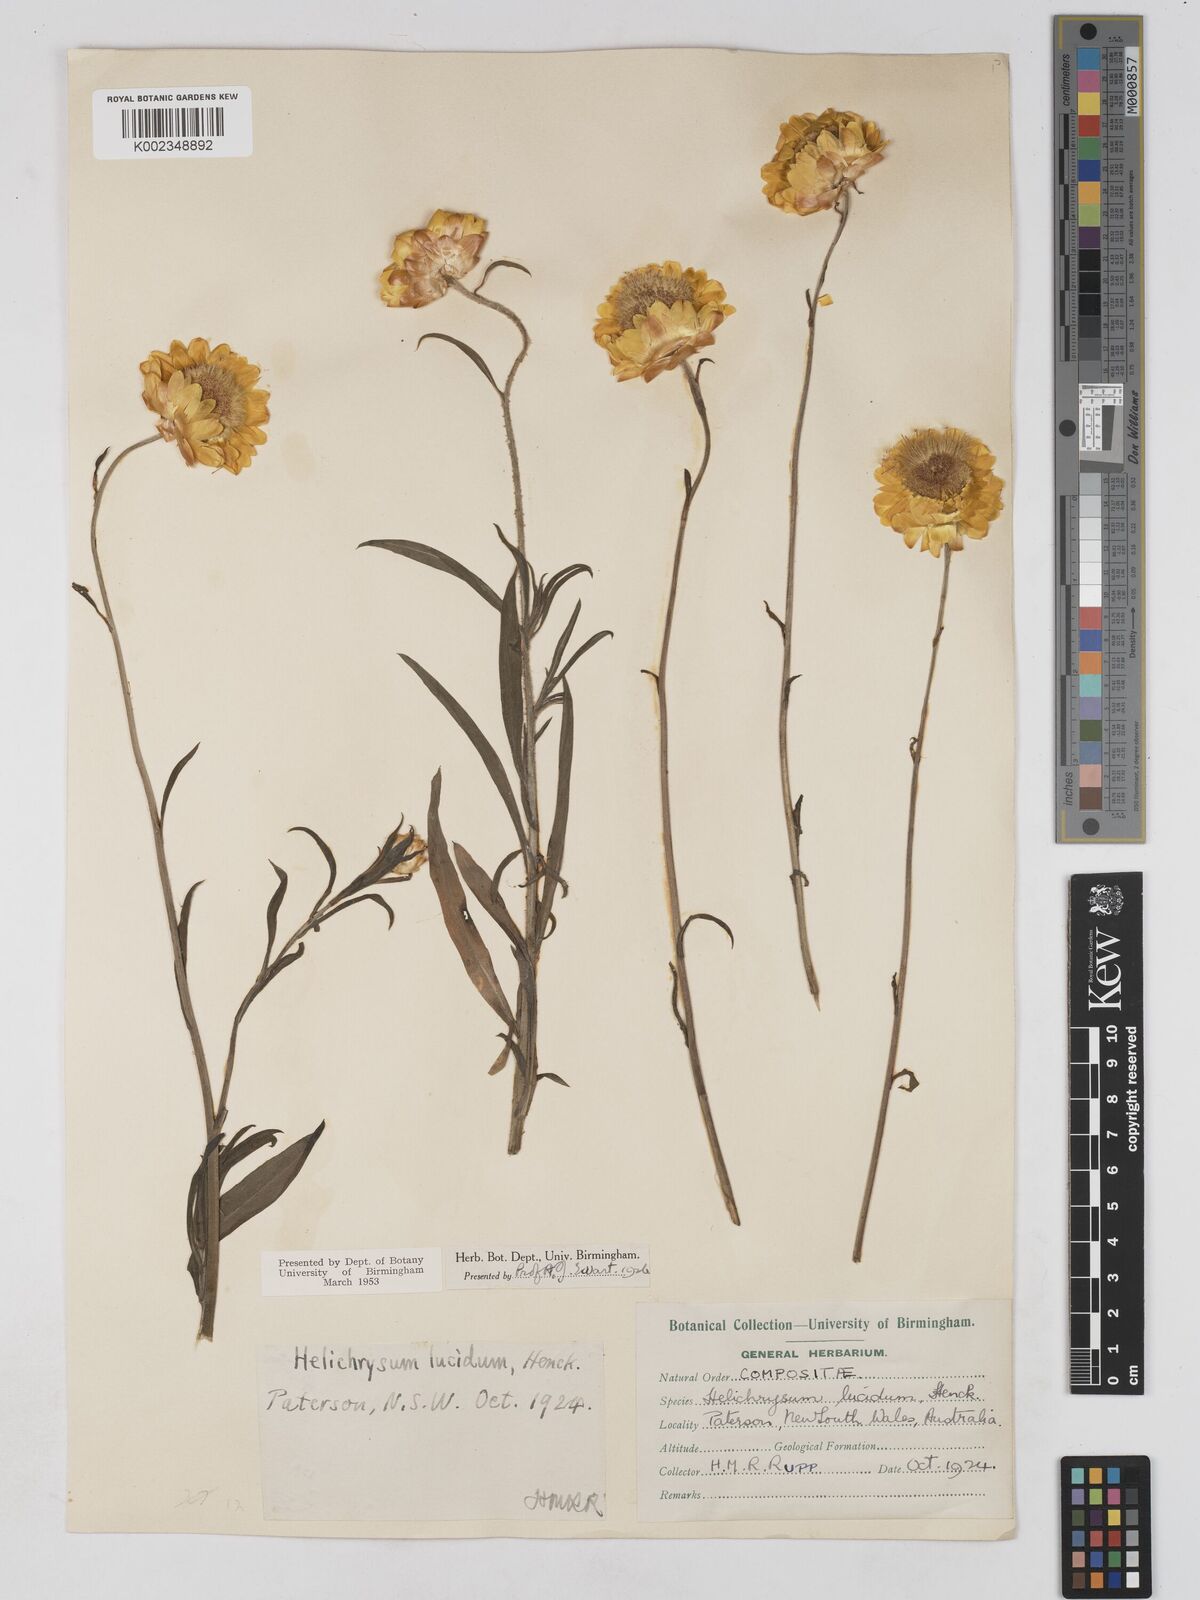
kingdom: Plantae
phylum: Tracheophyta
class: Magnoliopsida
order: Asterales
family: Asteraceae
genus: Xerochrysum
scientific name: Xerochrysum bracteatum
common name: Bracted strawflower
